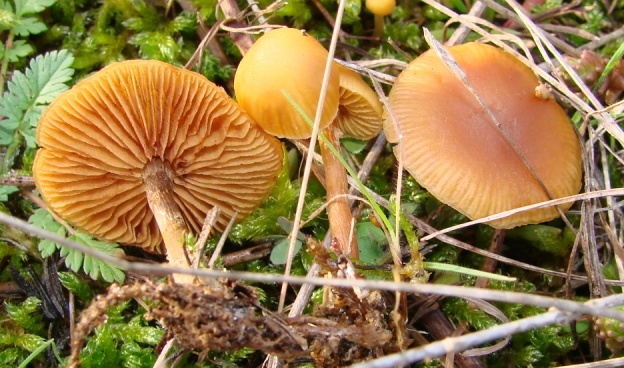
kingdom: Fungi
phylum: Basidiomycota
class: Agaricomycetes
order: Agaricales
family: Hymenogastraceae
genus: Galerina
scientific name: Galerina pumila
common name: honninggul hjelmhat
